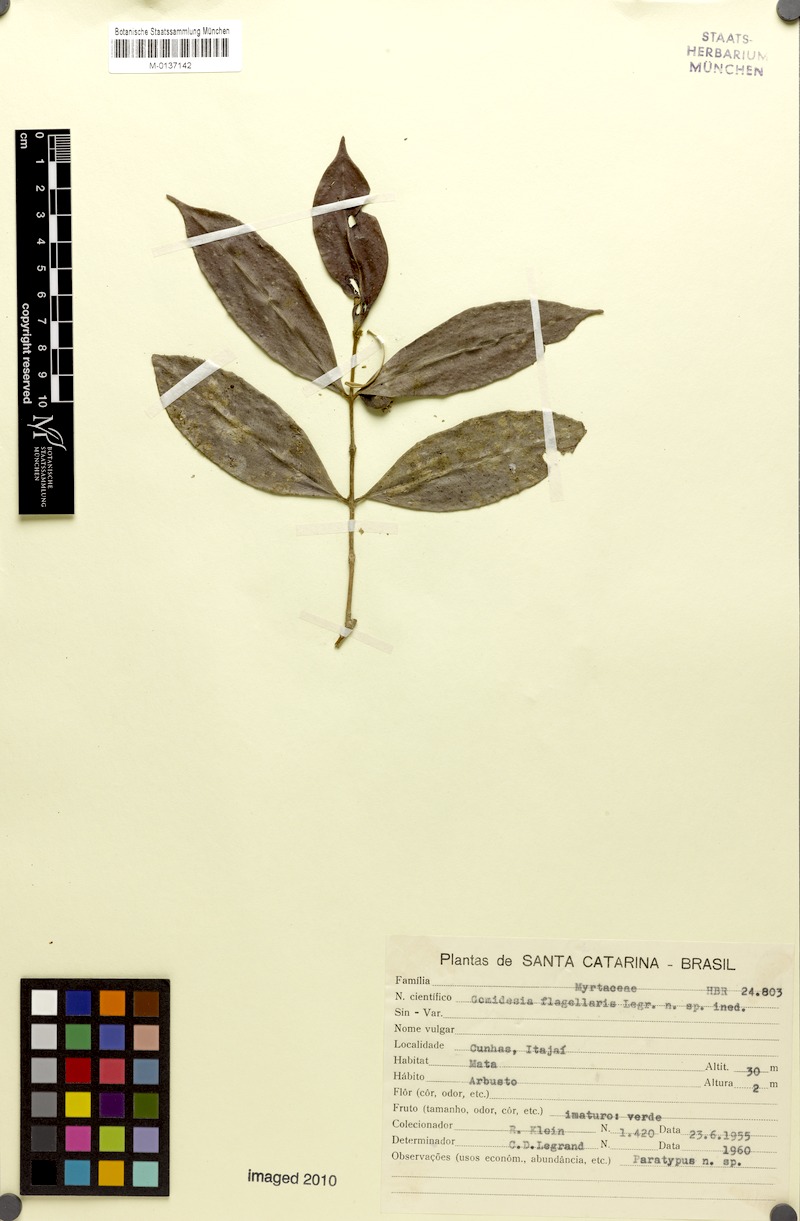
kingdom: Plantae
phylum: Tracheophyta
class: Magnoliopsida
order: Myrtales
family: Myrtaceae
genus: Myrcia
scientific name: Myrcia flagellaris
